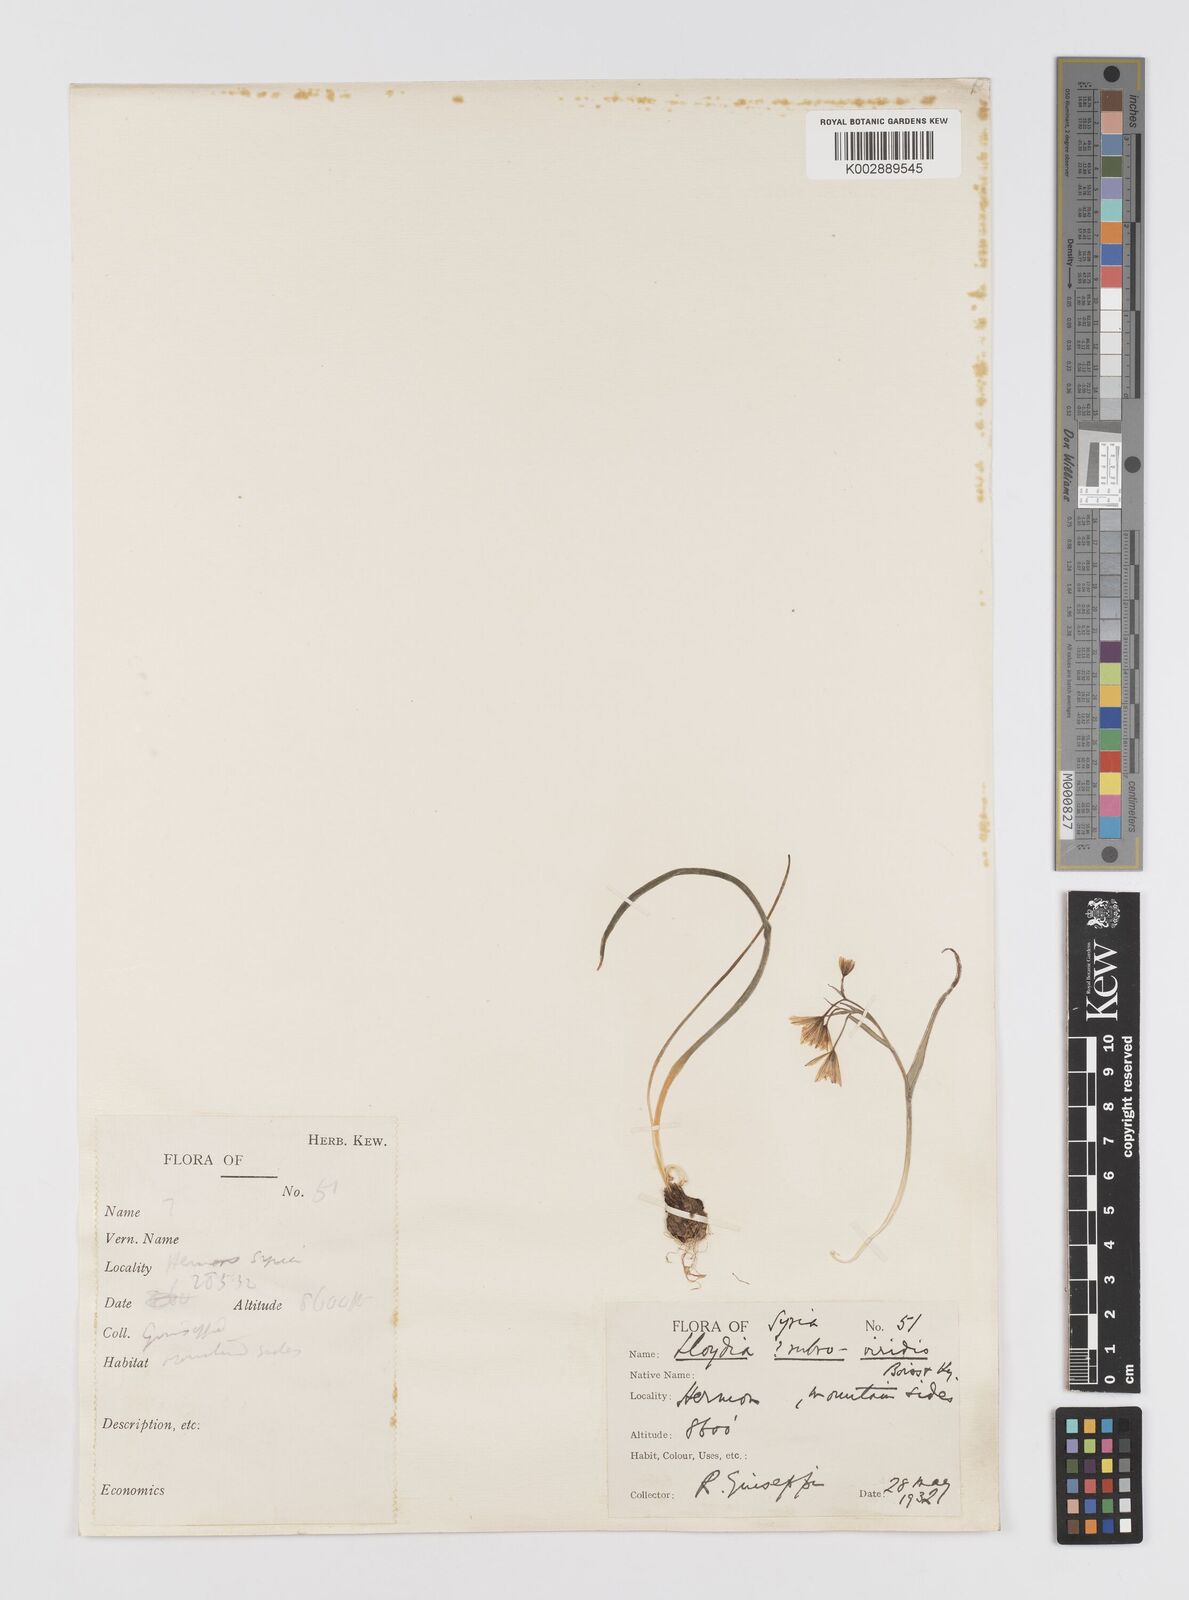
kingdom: Plantae
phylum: Tracheophyta
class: Liliopsida
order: Liliales
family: Liliaceae
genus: Gagea
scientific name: Gagea libanotica
